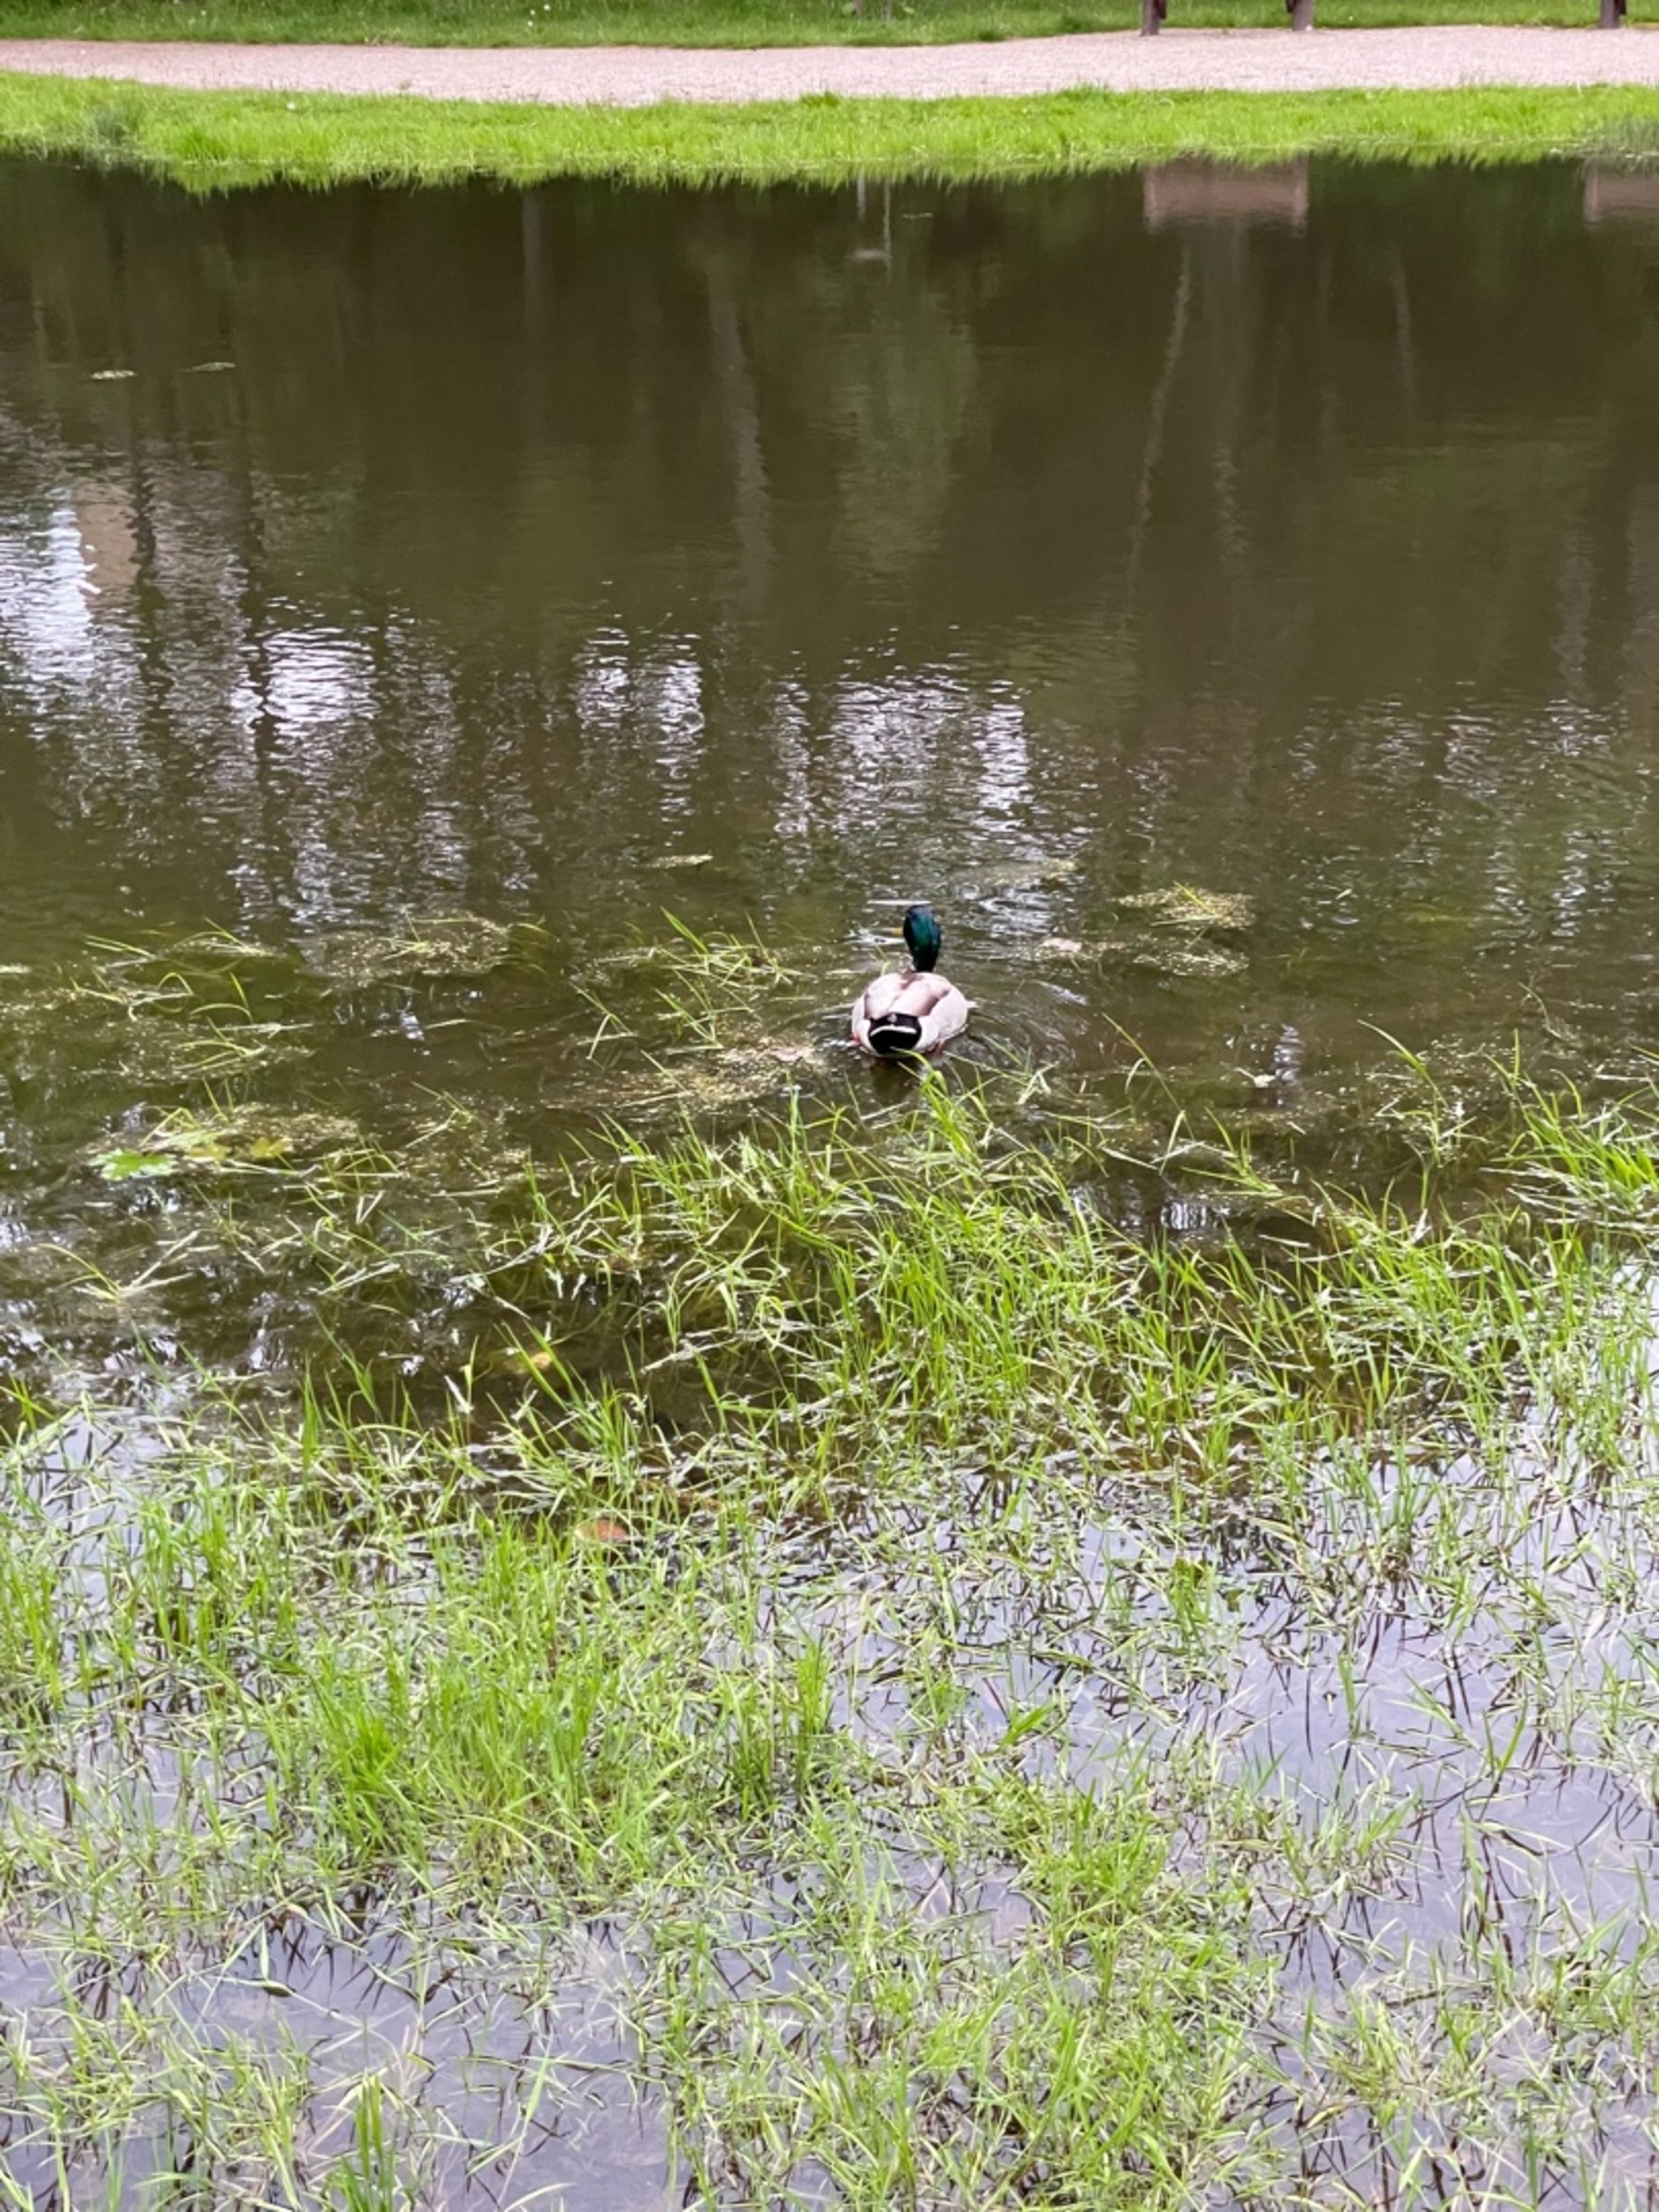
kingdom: Animalia
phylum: Chordata
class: Aves
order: Anseriformes
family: Anatidae
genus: Anas
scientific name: Anas platyrhynchos
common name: Gråand
